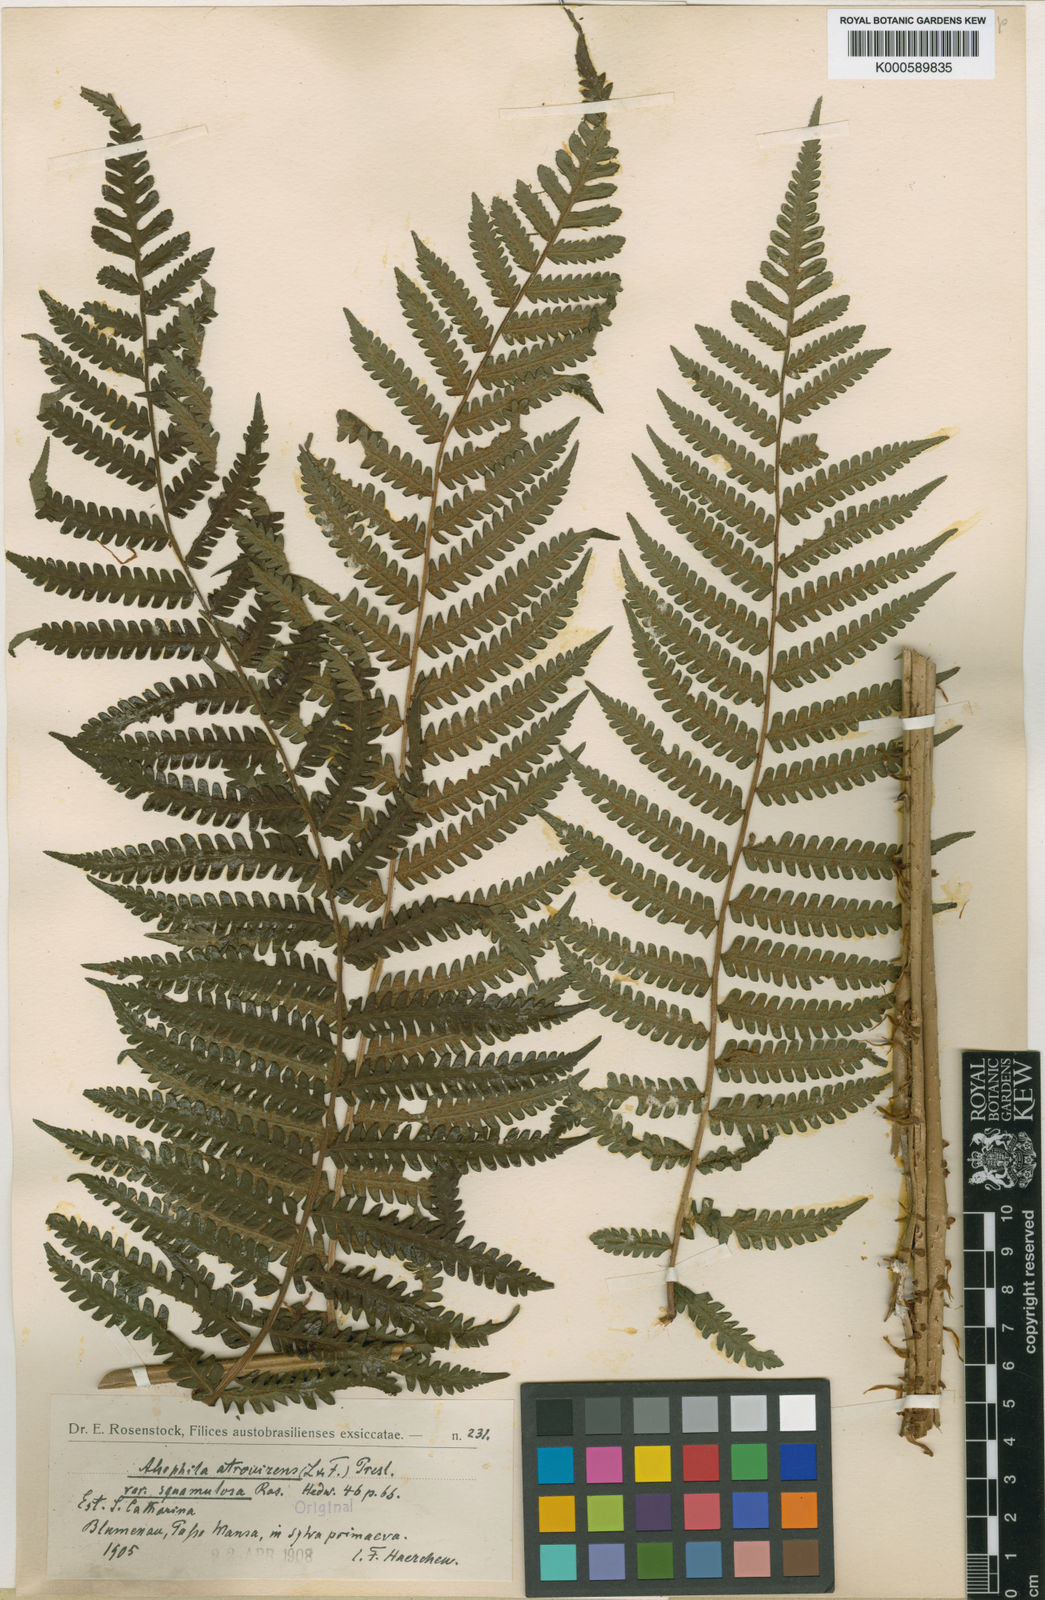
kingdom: Plantae
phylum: Tracheophyta
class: Polypodiopsida
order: Cyatheales
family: Cyatheaceae
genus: Cyathea
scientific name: Cyathea atrovirens
